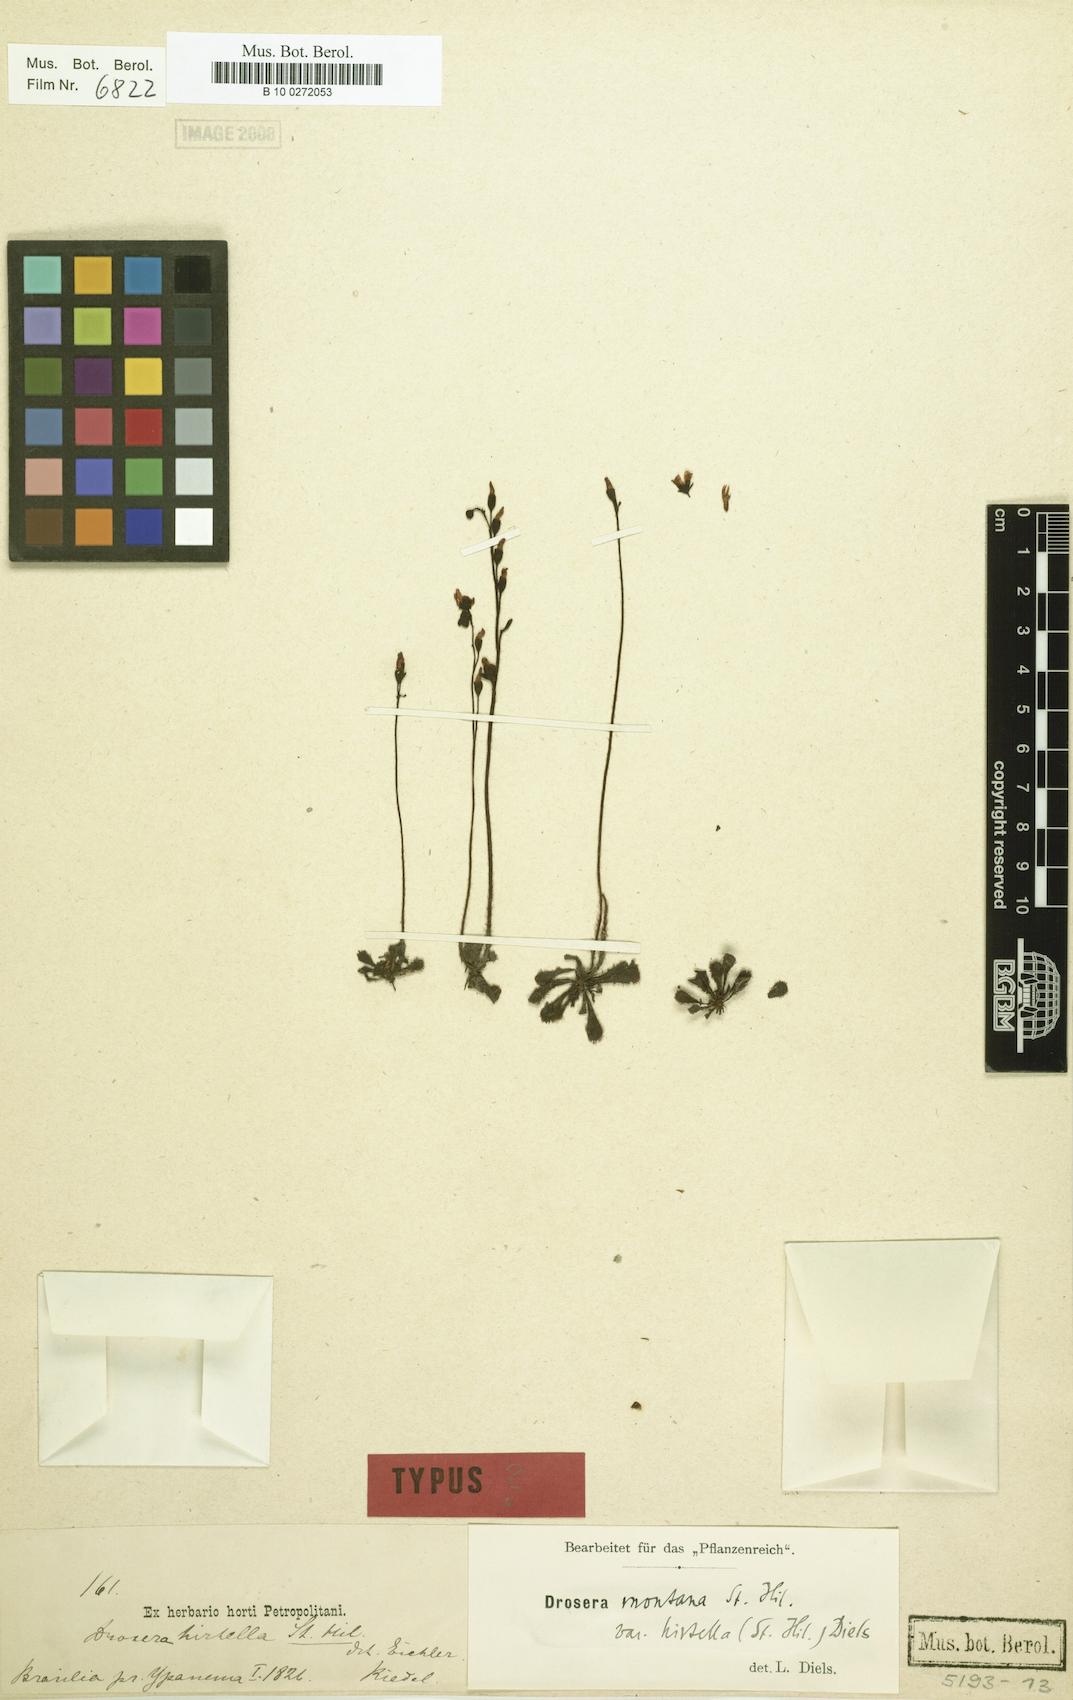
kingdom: Plantae
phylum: Tracheophyta
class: Magnoliopsida
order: Caryophyllales
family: Droseraceae
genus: Drosera
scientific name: Drosera lutescens
